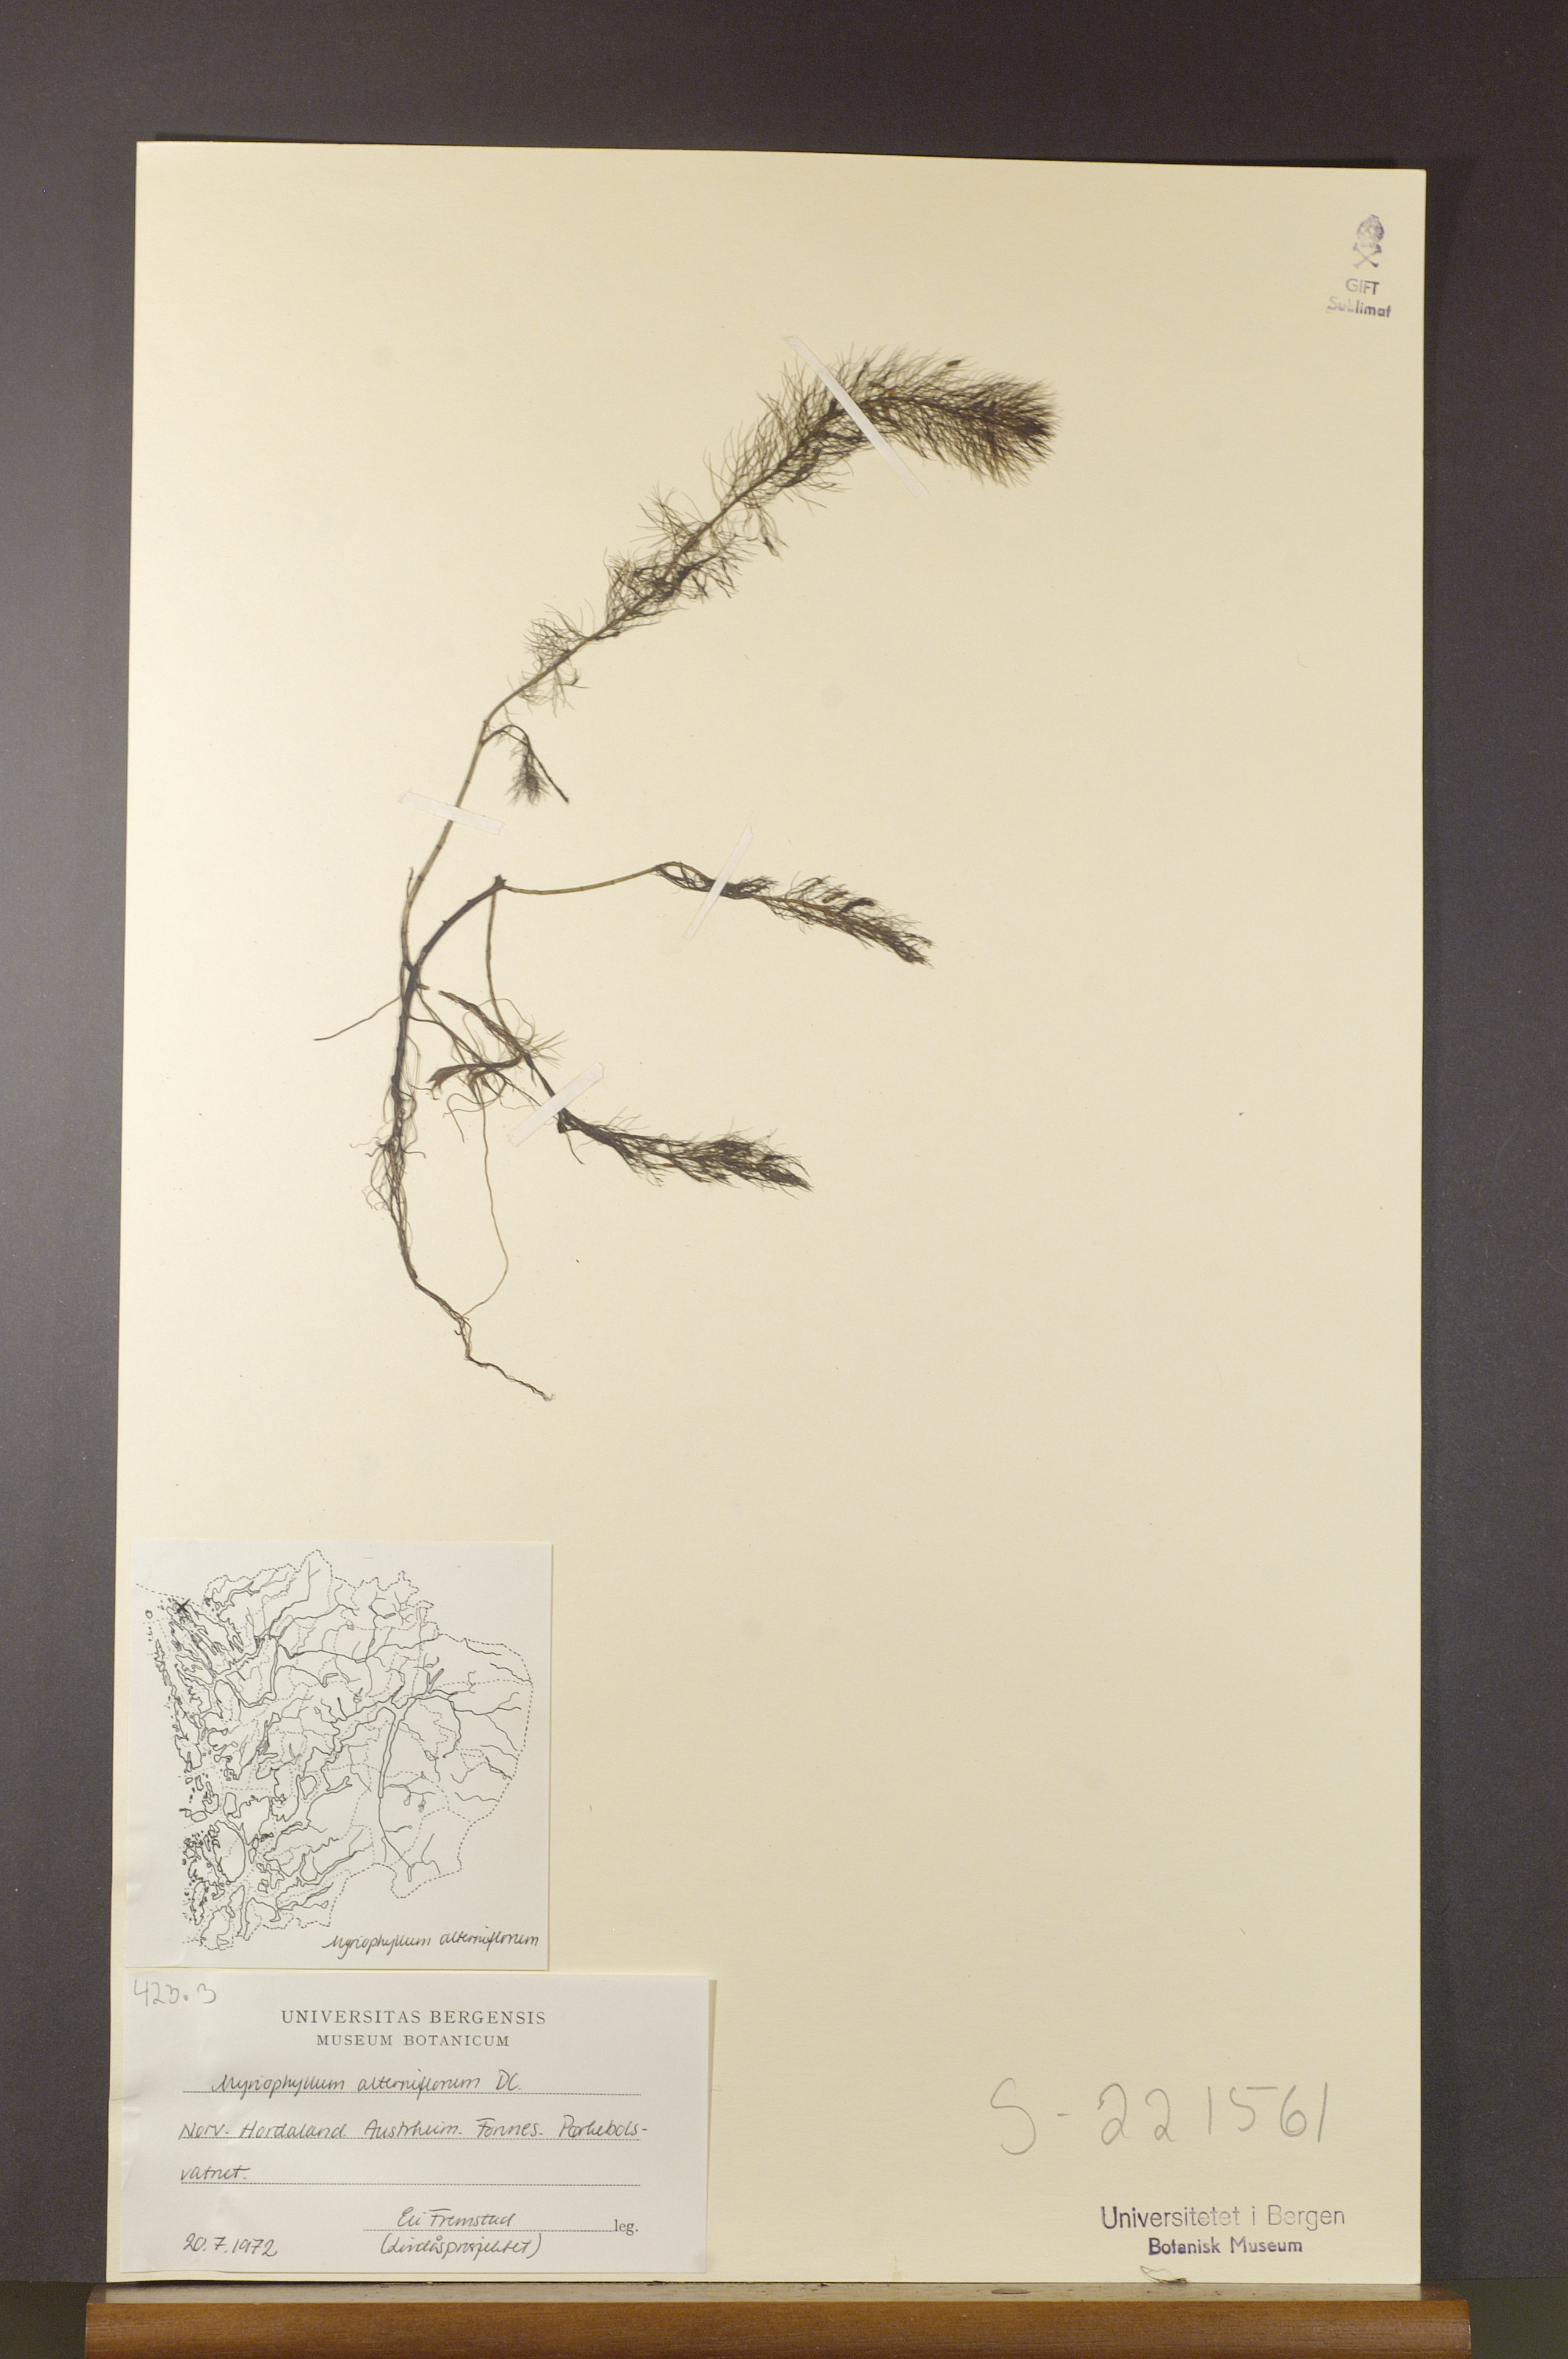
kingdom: Plantae
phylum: Tracheophyta
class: Magnoliopsida
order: Saxifragales
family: Haloragaceae
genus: Myriophyllum
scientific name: Myriophyllum alterniflorum
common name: Alternate water-milfoil
